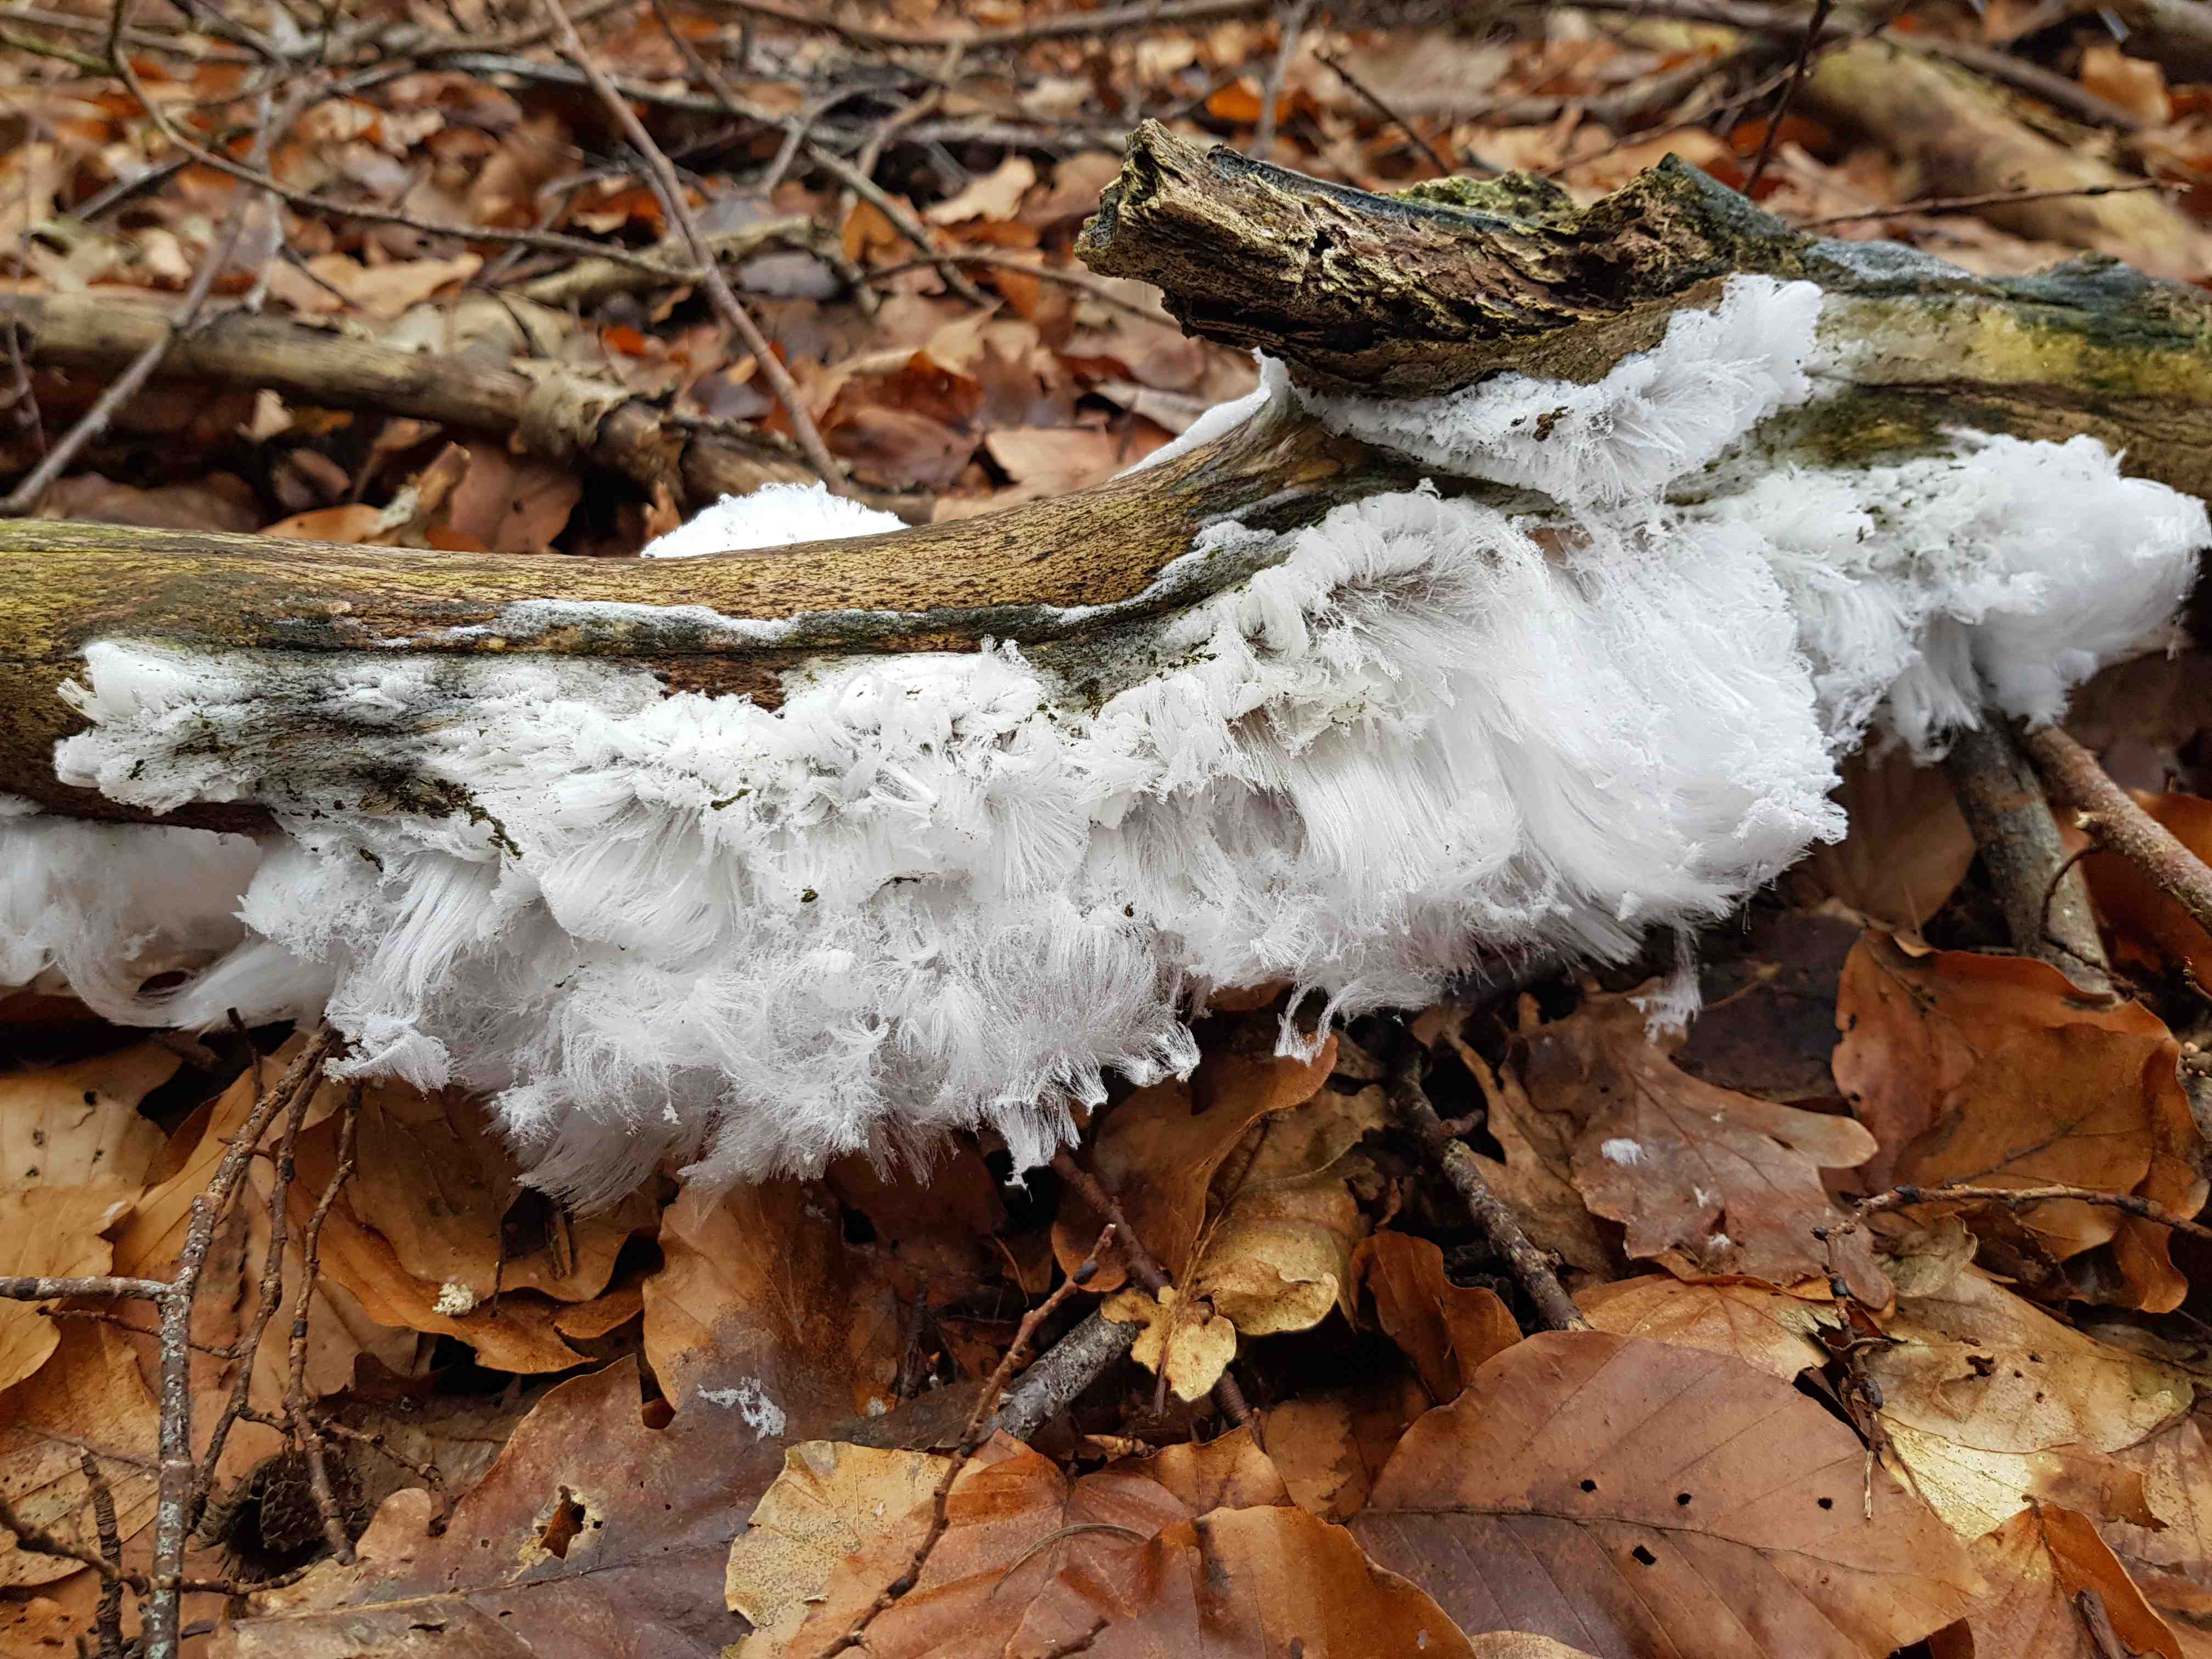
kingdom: Fungi
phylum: Basidiomycota
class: Tremellomycetes
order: Tremellales
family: Exidiaceae
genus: Exidiopsis
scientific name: Exidiopsis effusa
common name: smuk bævrehinde
